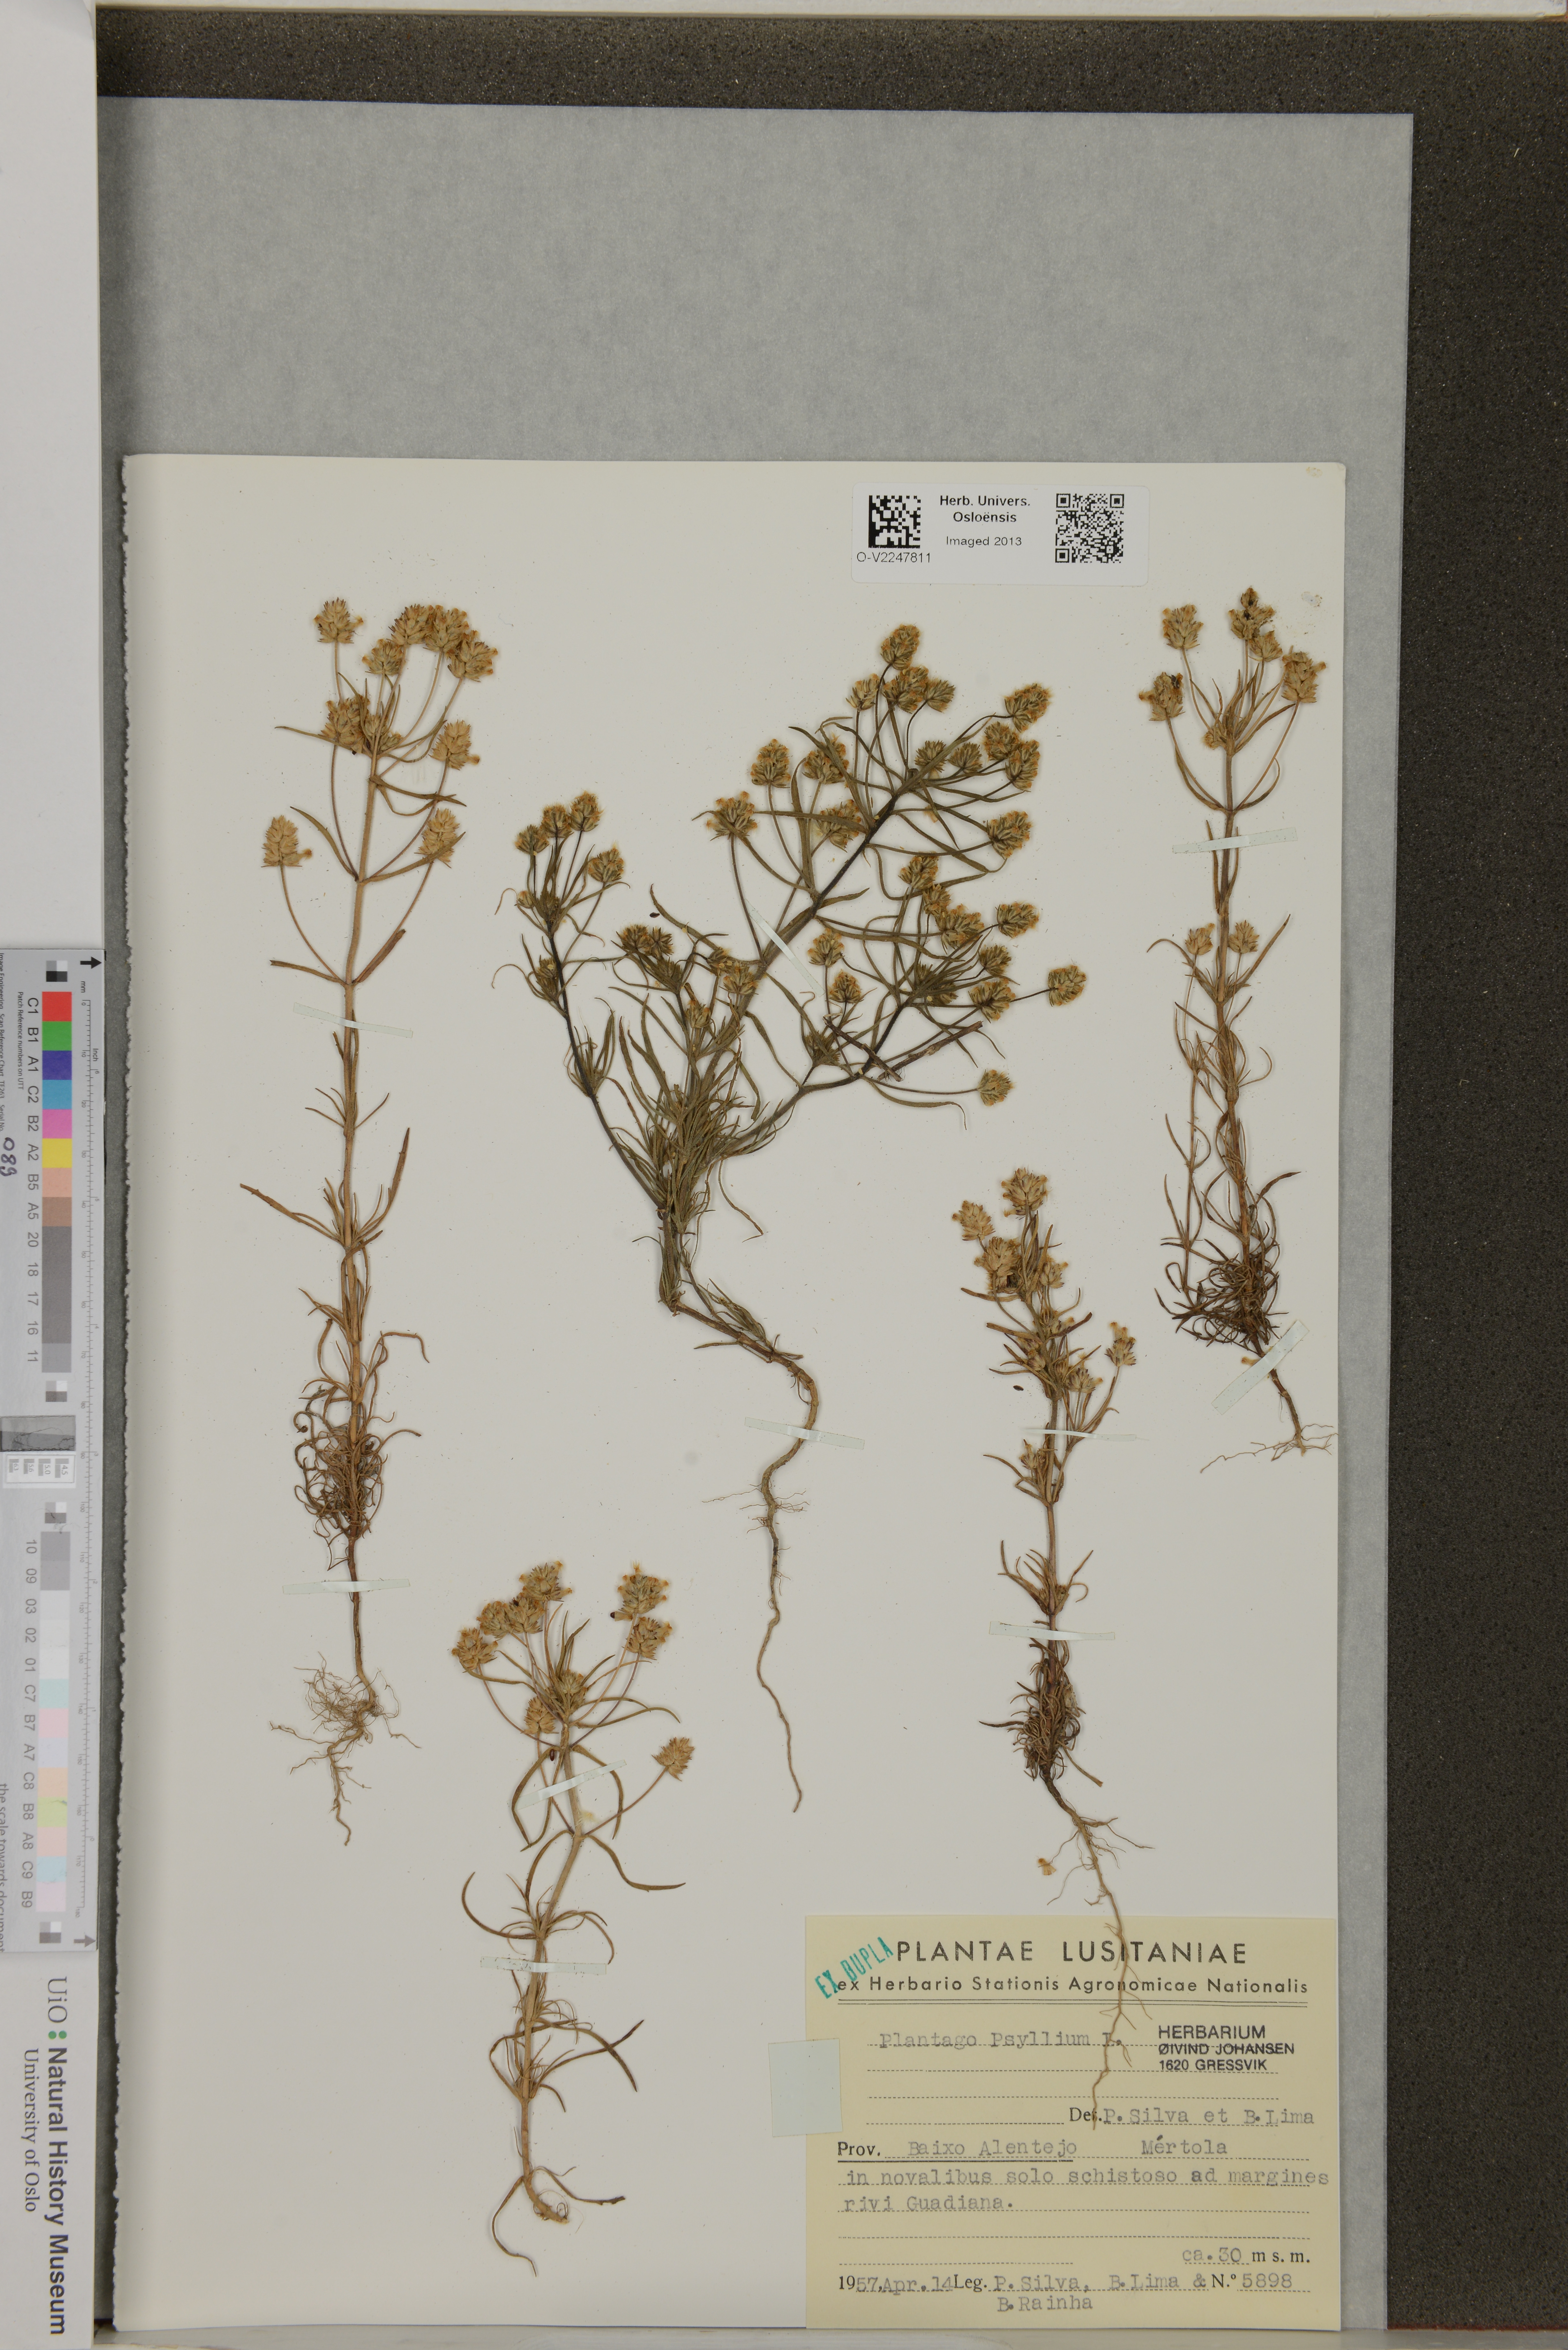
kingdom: Plantae
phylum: Tracheophyta
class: Magnoliopsida
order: Lamiales
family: Plantaginaceae
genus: Plantago
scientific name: Plantago psyllium
